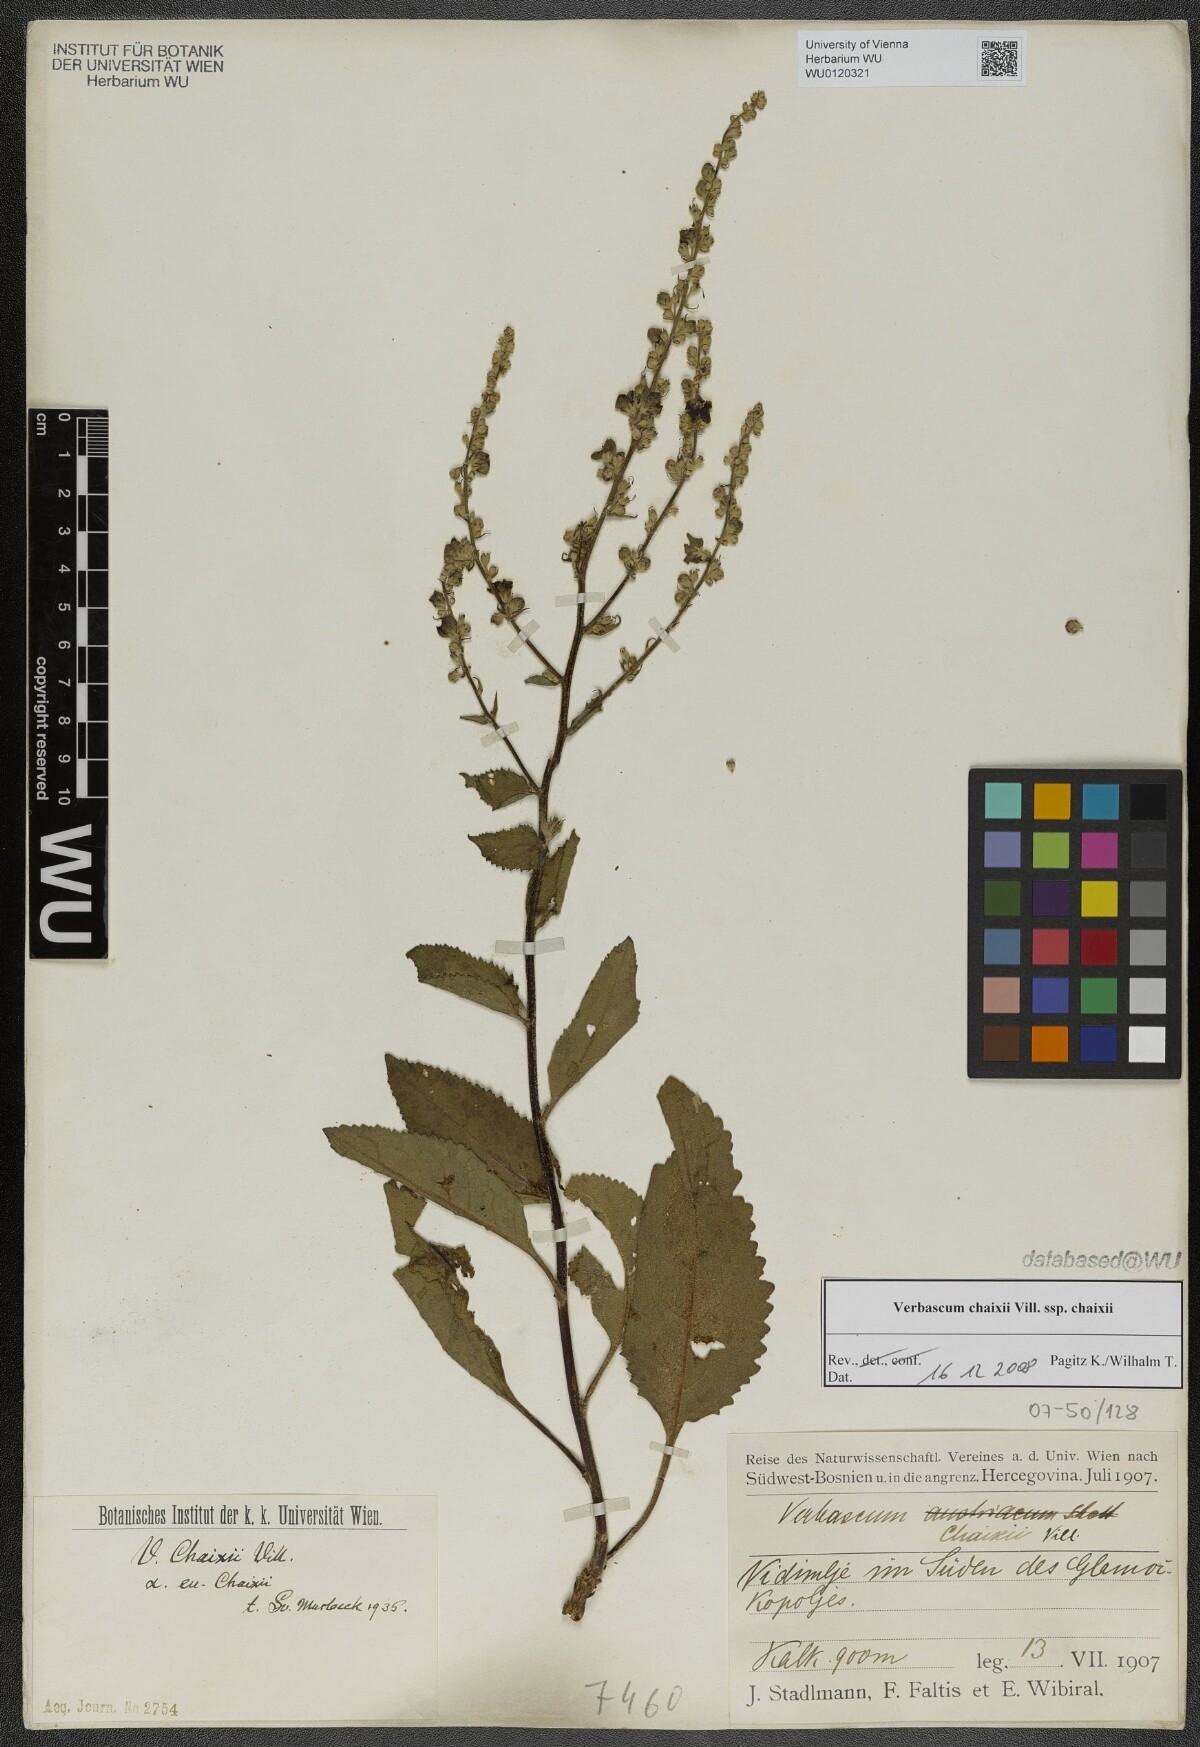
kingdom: Plantae
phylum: Tracheophyta
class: Magnoliopsida
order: Lamiales
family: Scrophulariaceae
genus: Verbascum
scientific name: Verbascum chaixii
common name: Nettle-leaved mullein
